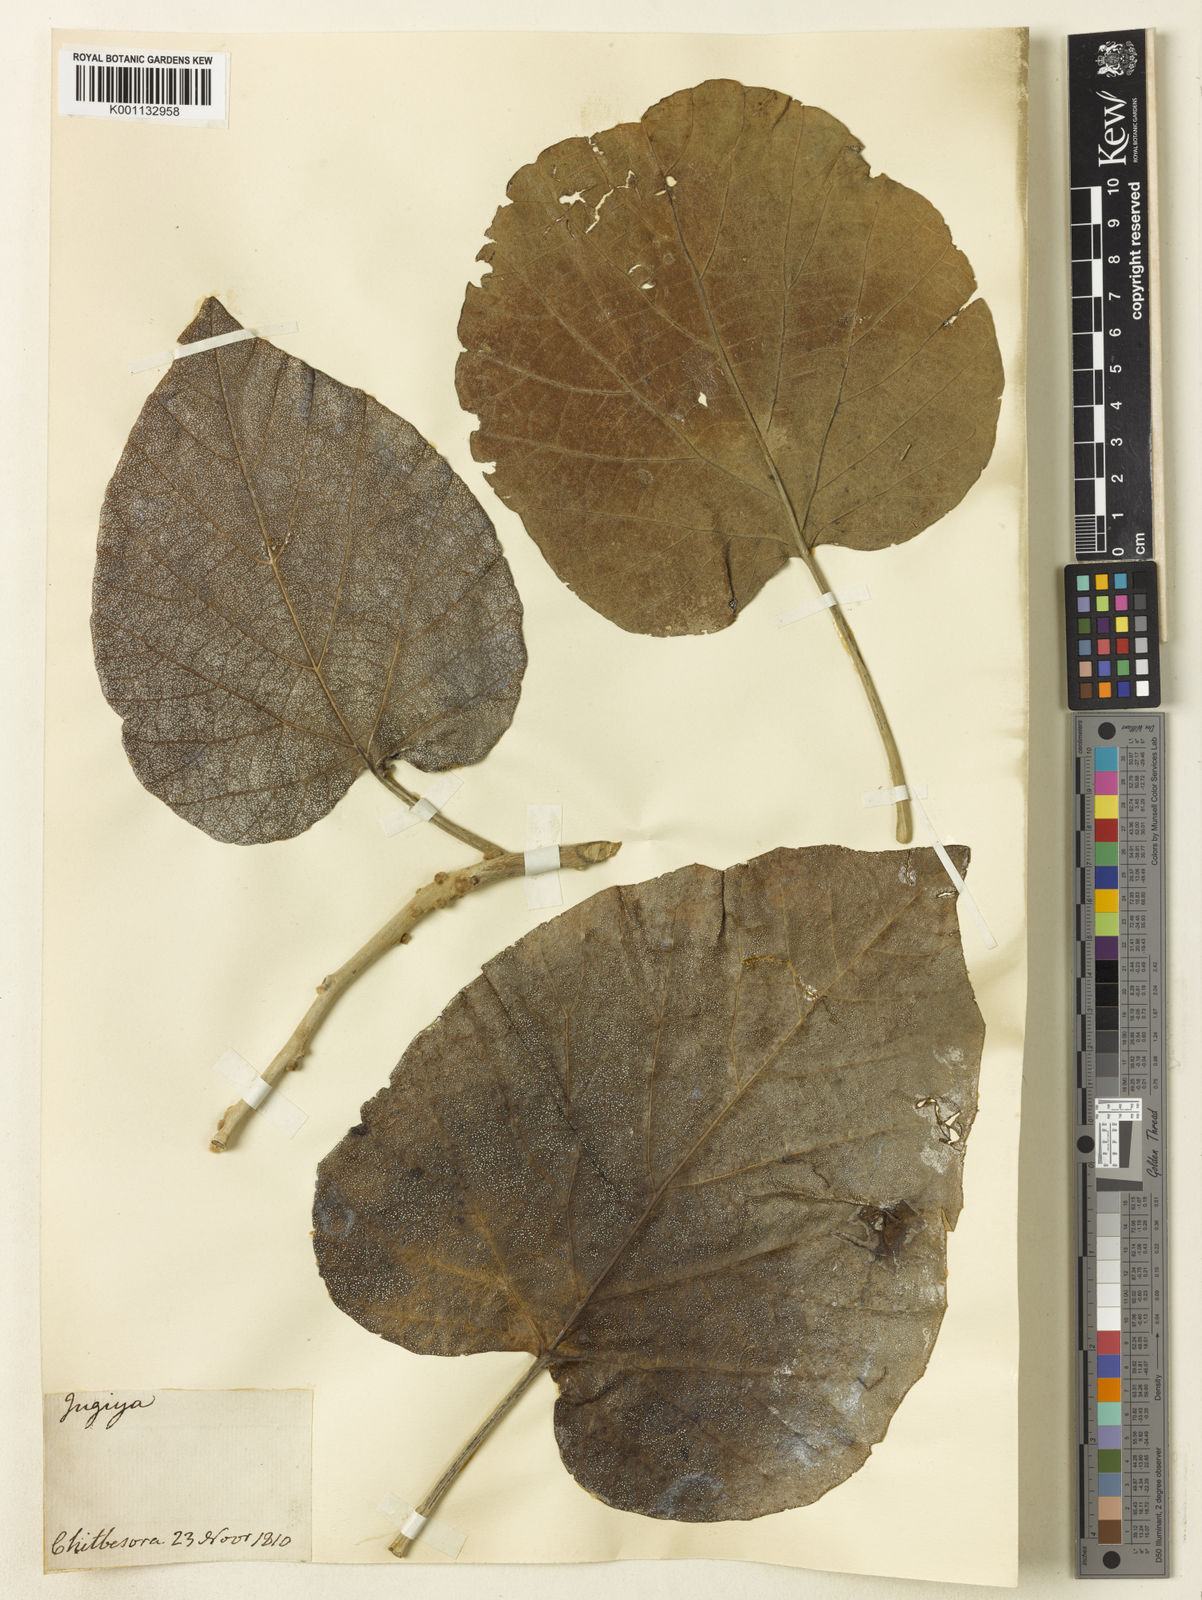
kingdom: Plantae
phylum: Tracheophyta
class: Magnoliopsida
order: Boraginales
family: Boraginaceae
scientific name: Boraginaceae
